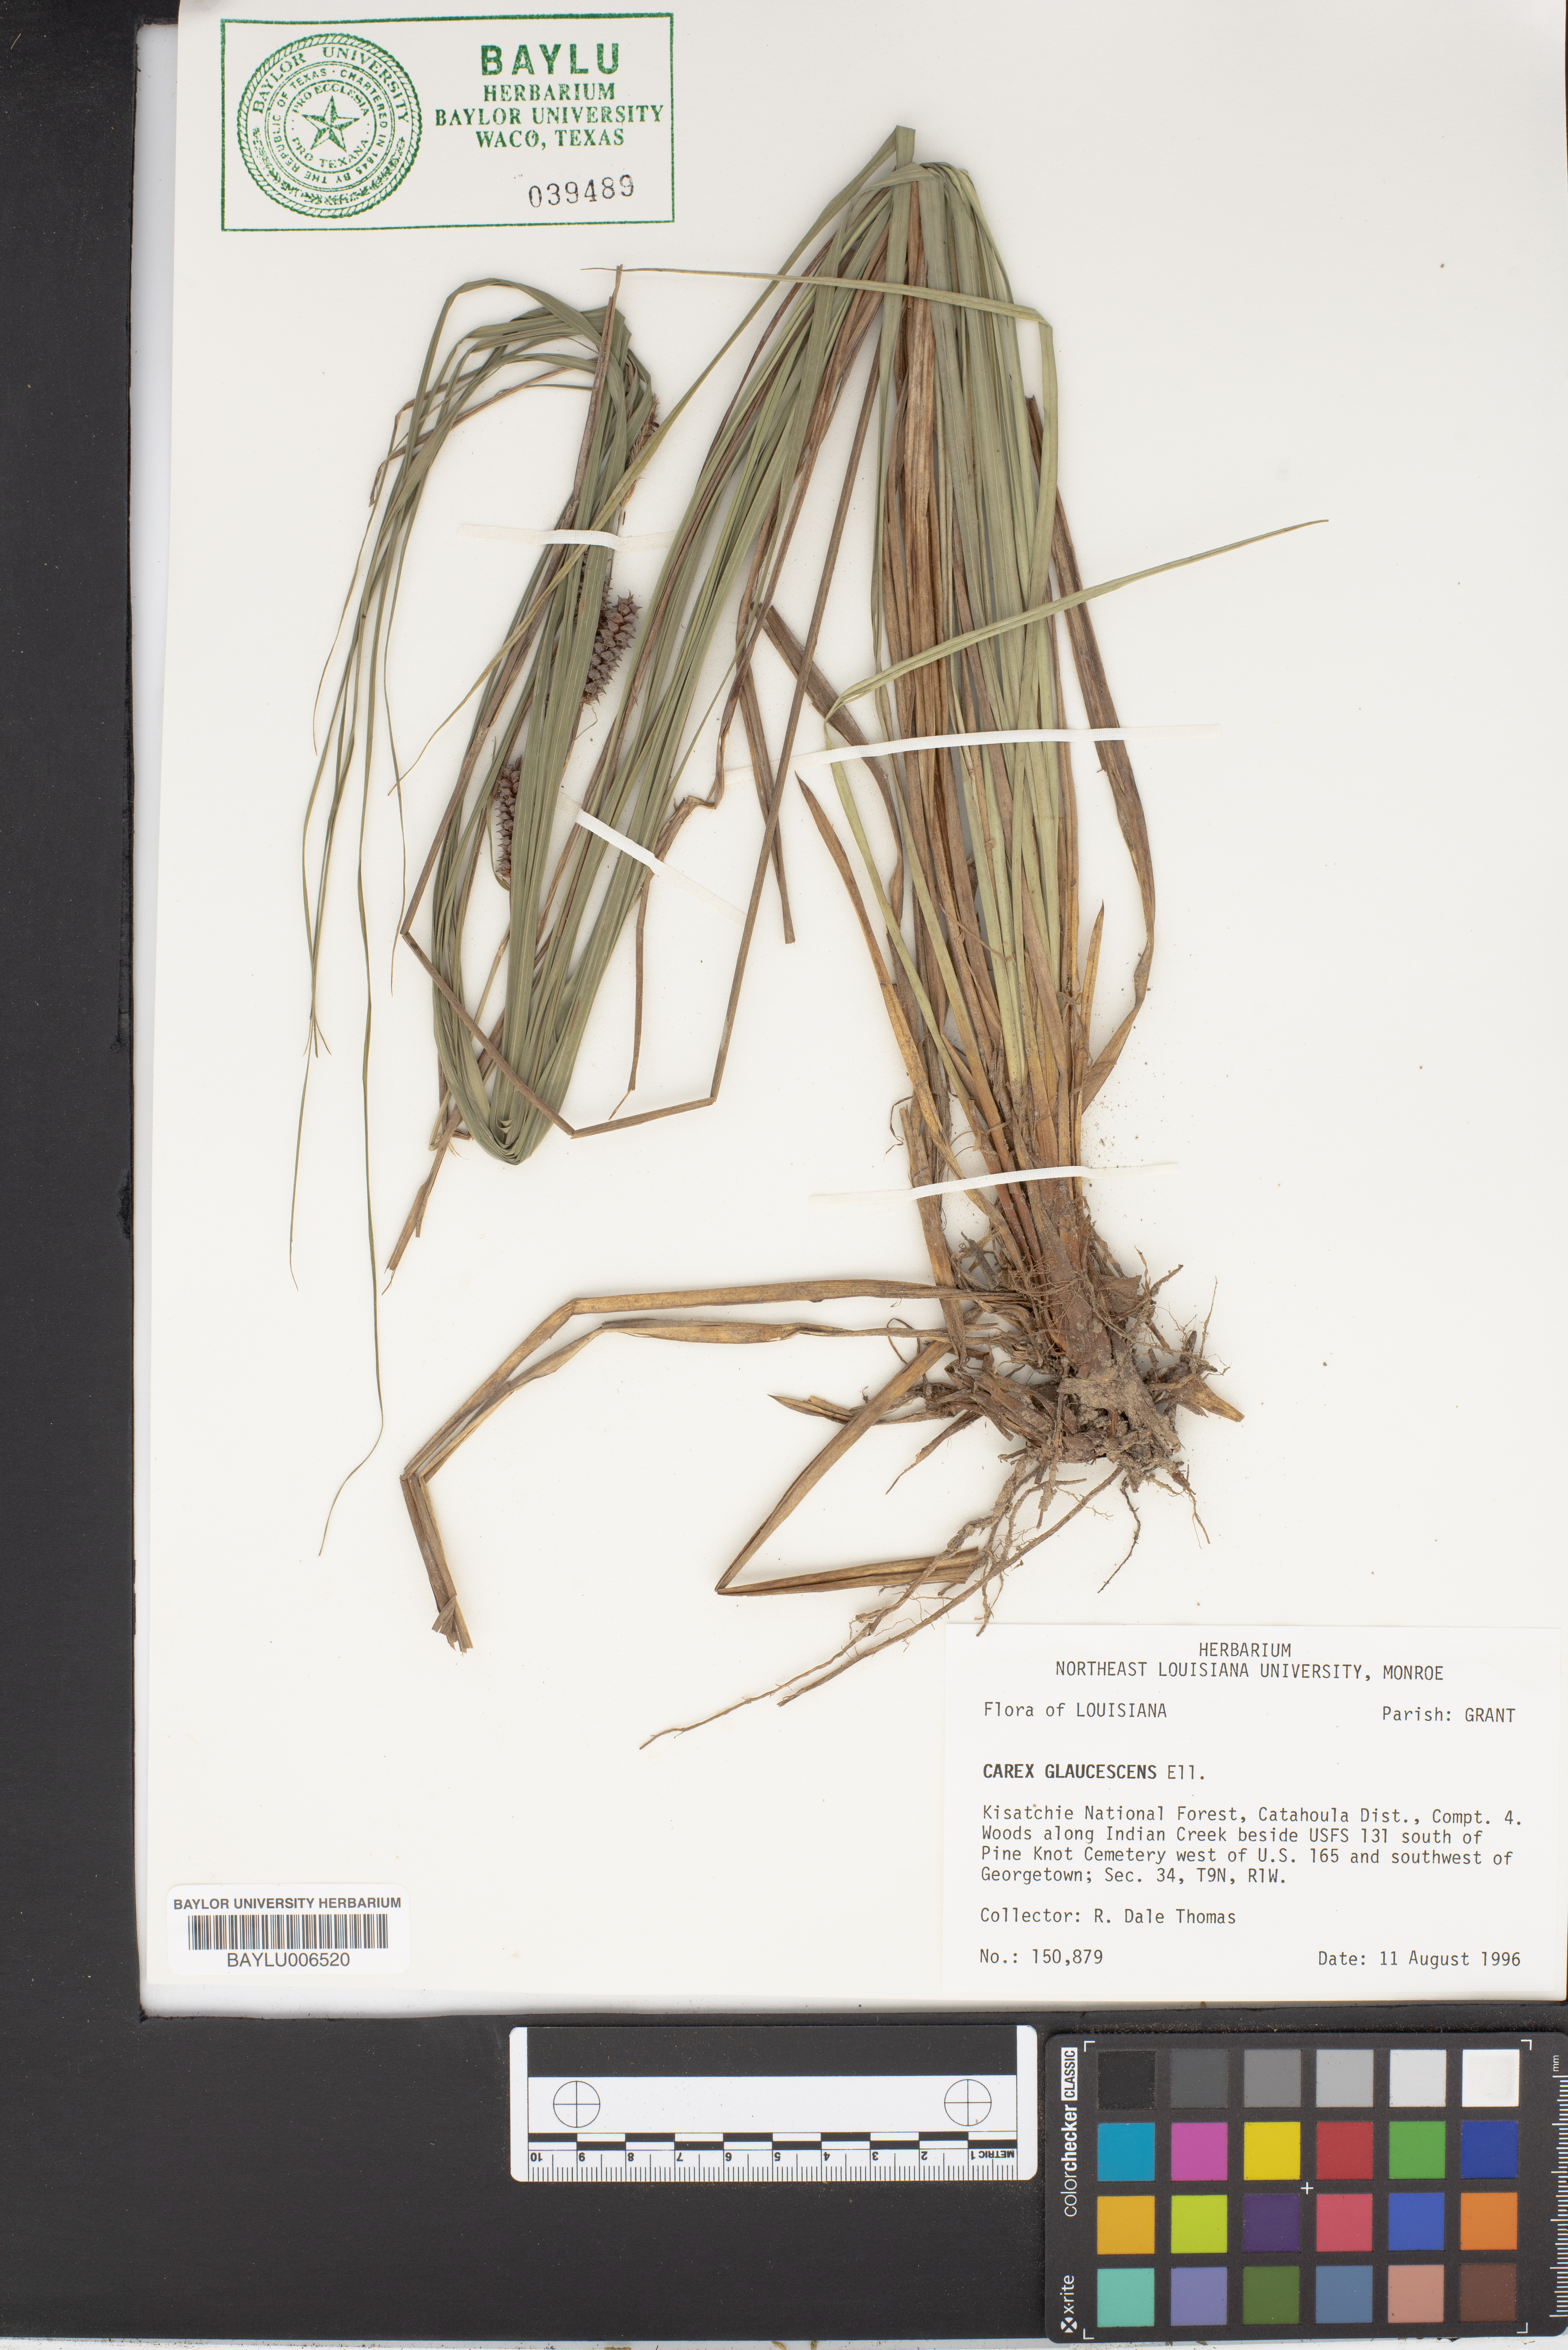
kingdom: Plantae
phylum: Tracheophyta
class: Liliopsida
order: Poales
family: Cyperaceae
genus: Carex
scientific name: Carex glaucescens
